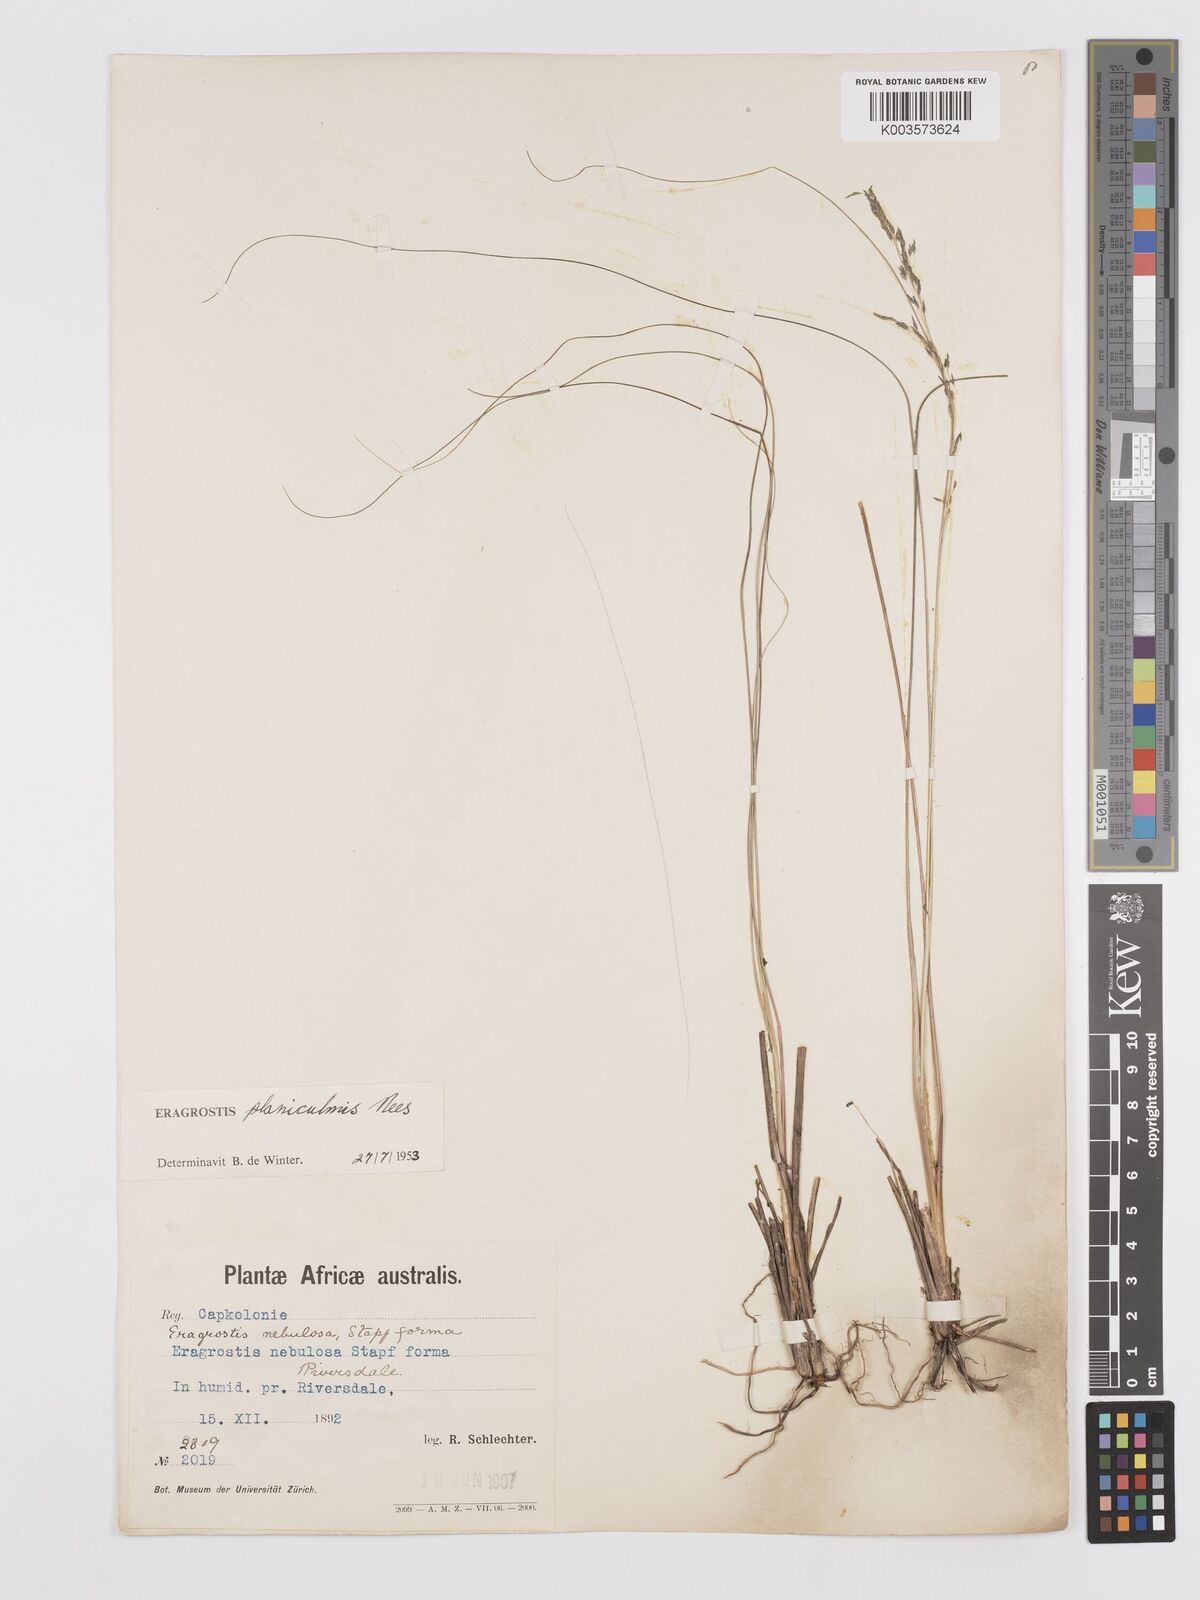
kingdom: Plantae
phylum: Tracheophyta
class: Liliopsida
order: Poales
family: Poaceae
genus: Eragrostis
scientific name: Eragrostis planiculmis
